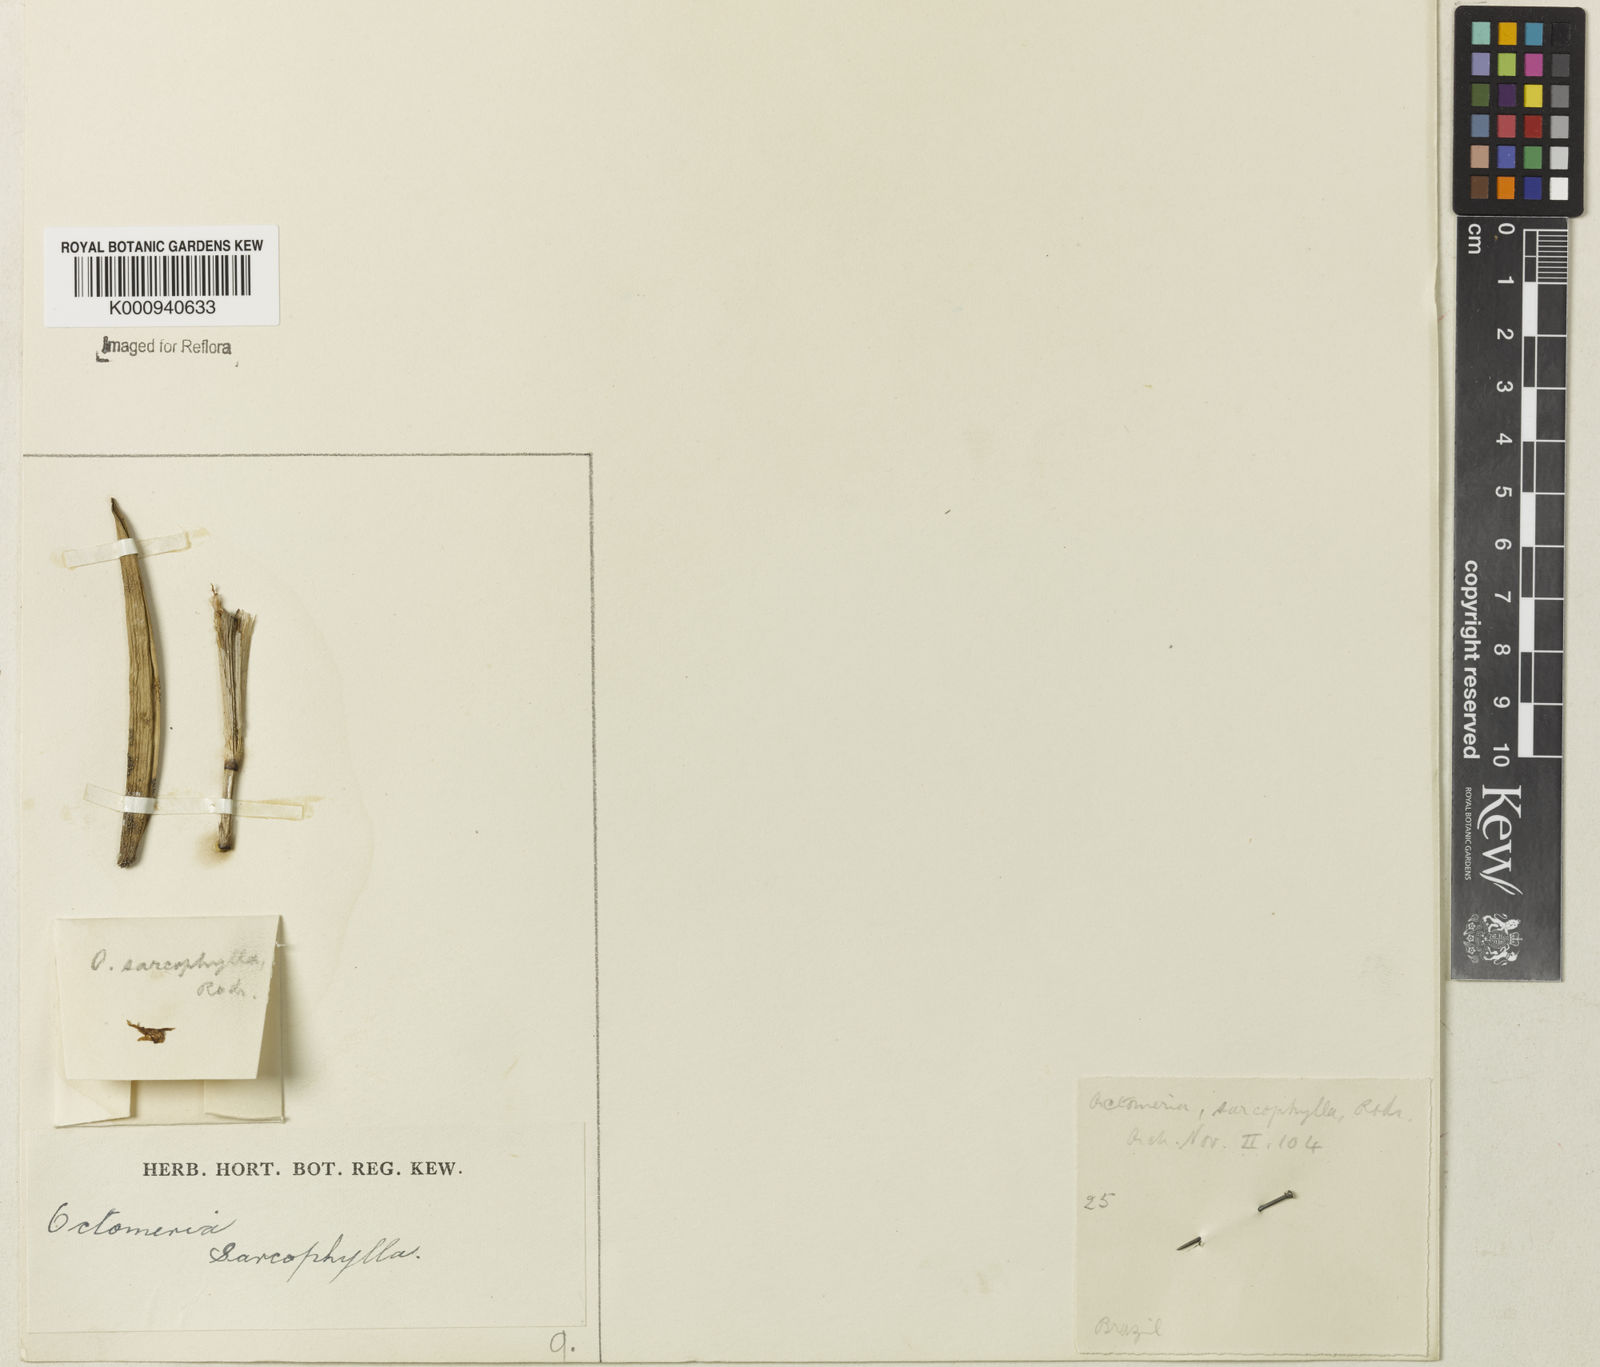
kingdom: Plantae
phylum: Tracheophyta
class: Liliopsida
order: Asparagales
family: Orchidaceae
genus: Octomeria
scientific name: Octomeria sarcophylla
